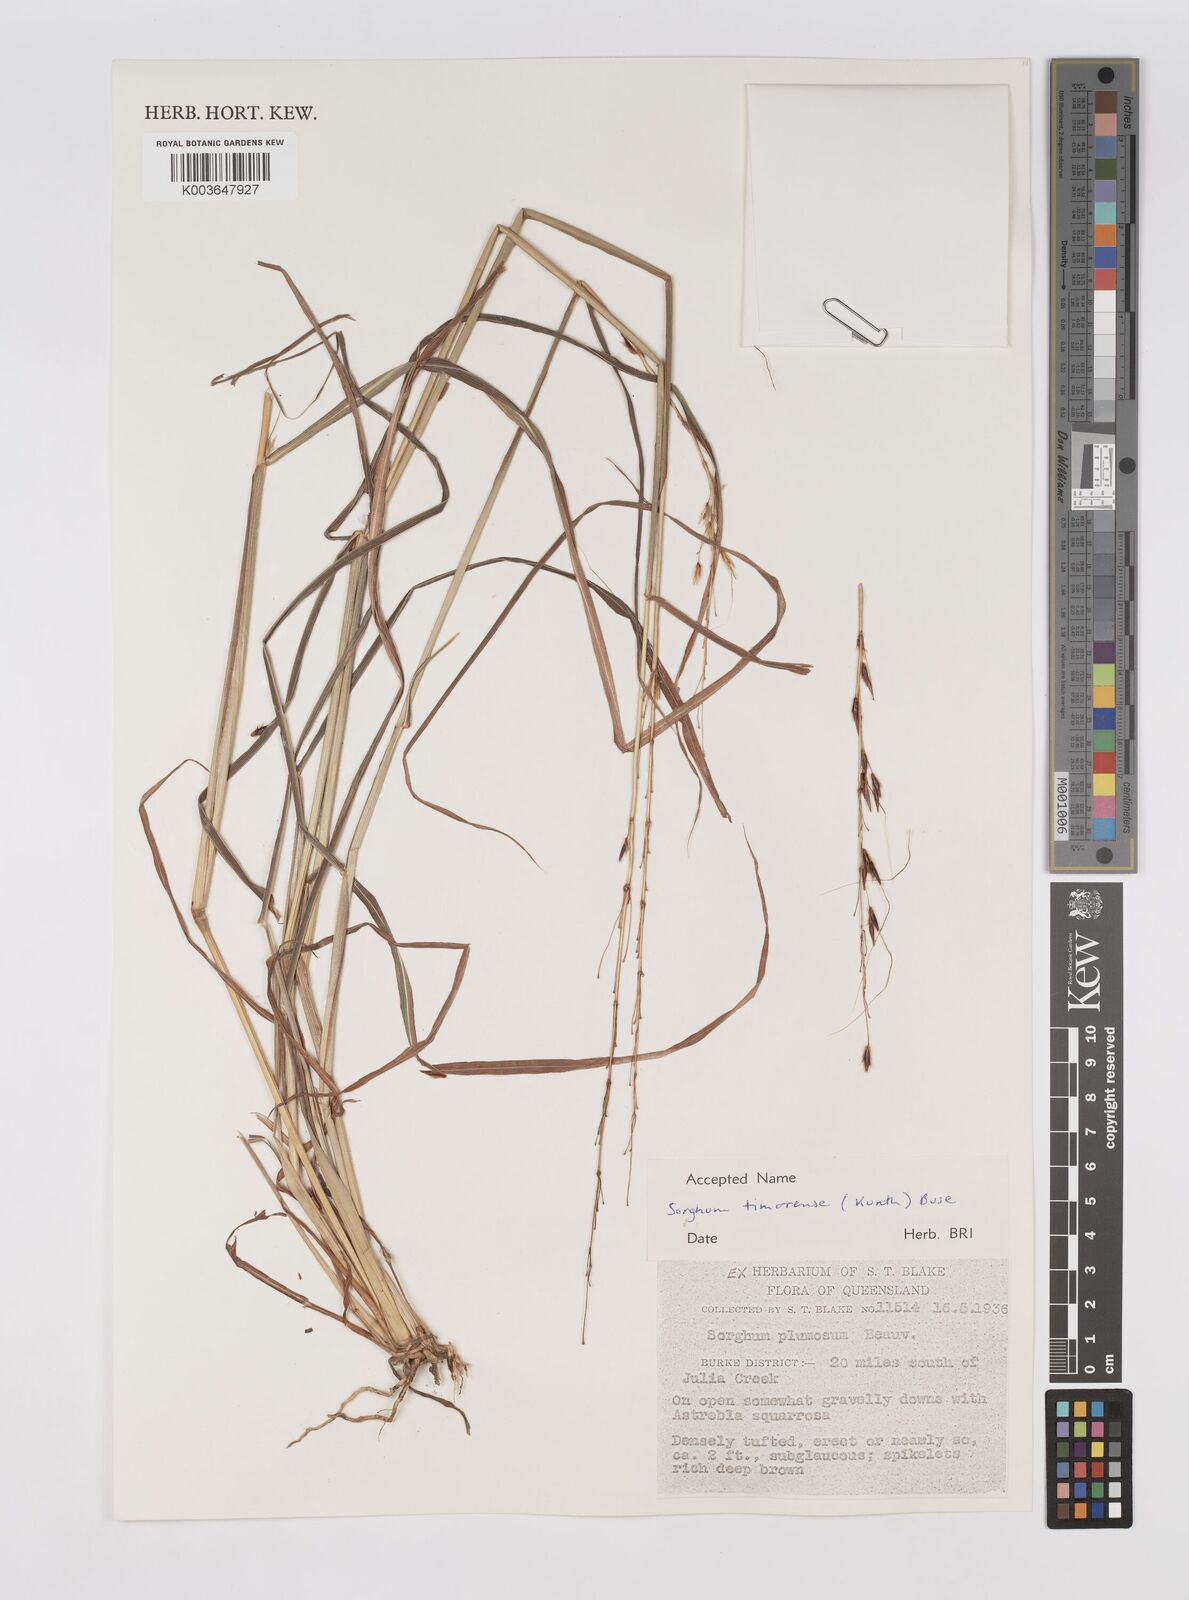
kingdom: Plantae
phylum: Tracheophyta
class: Liliopsida
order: Poales
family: Poaceae
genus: Sarga
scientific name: Sarga timorensis
